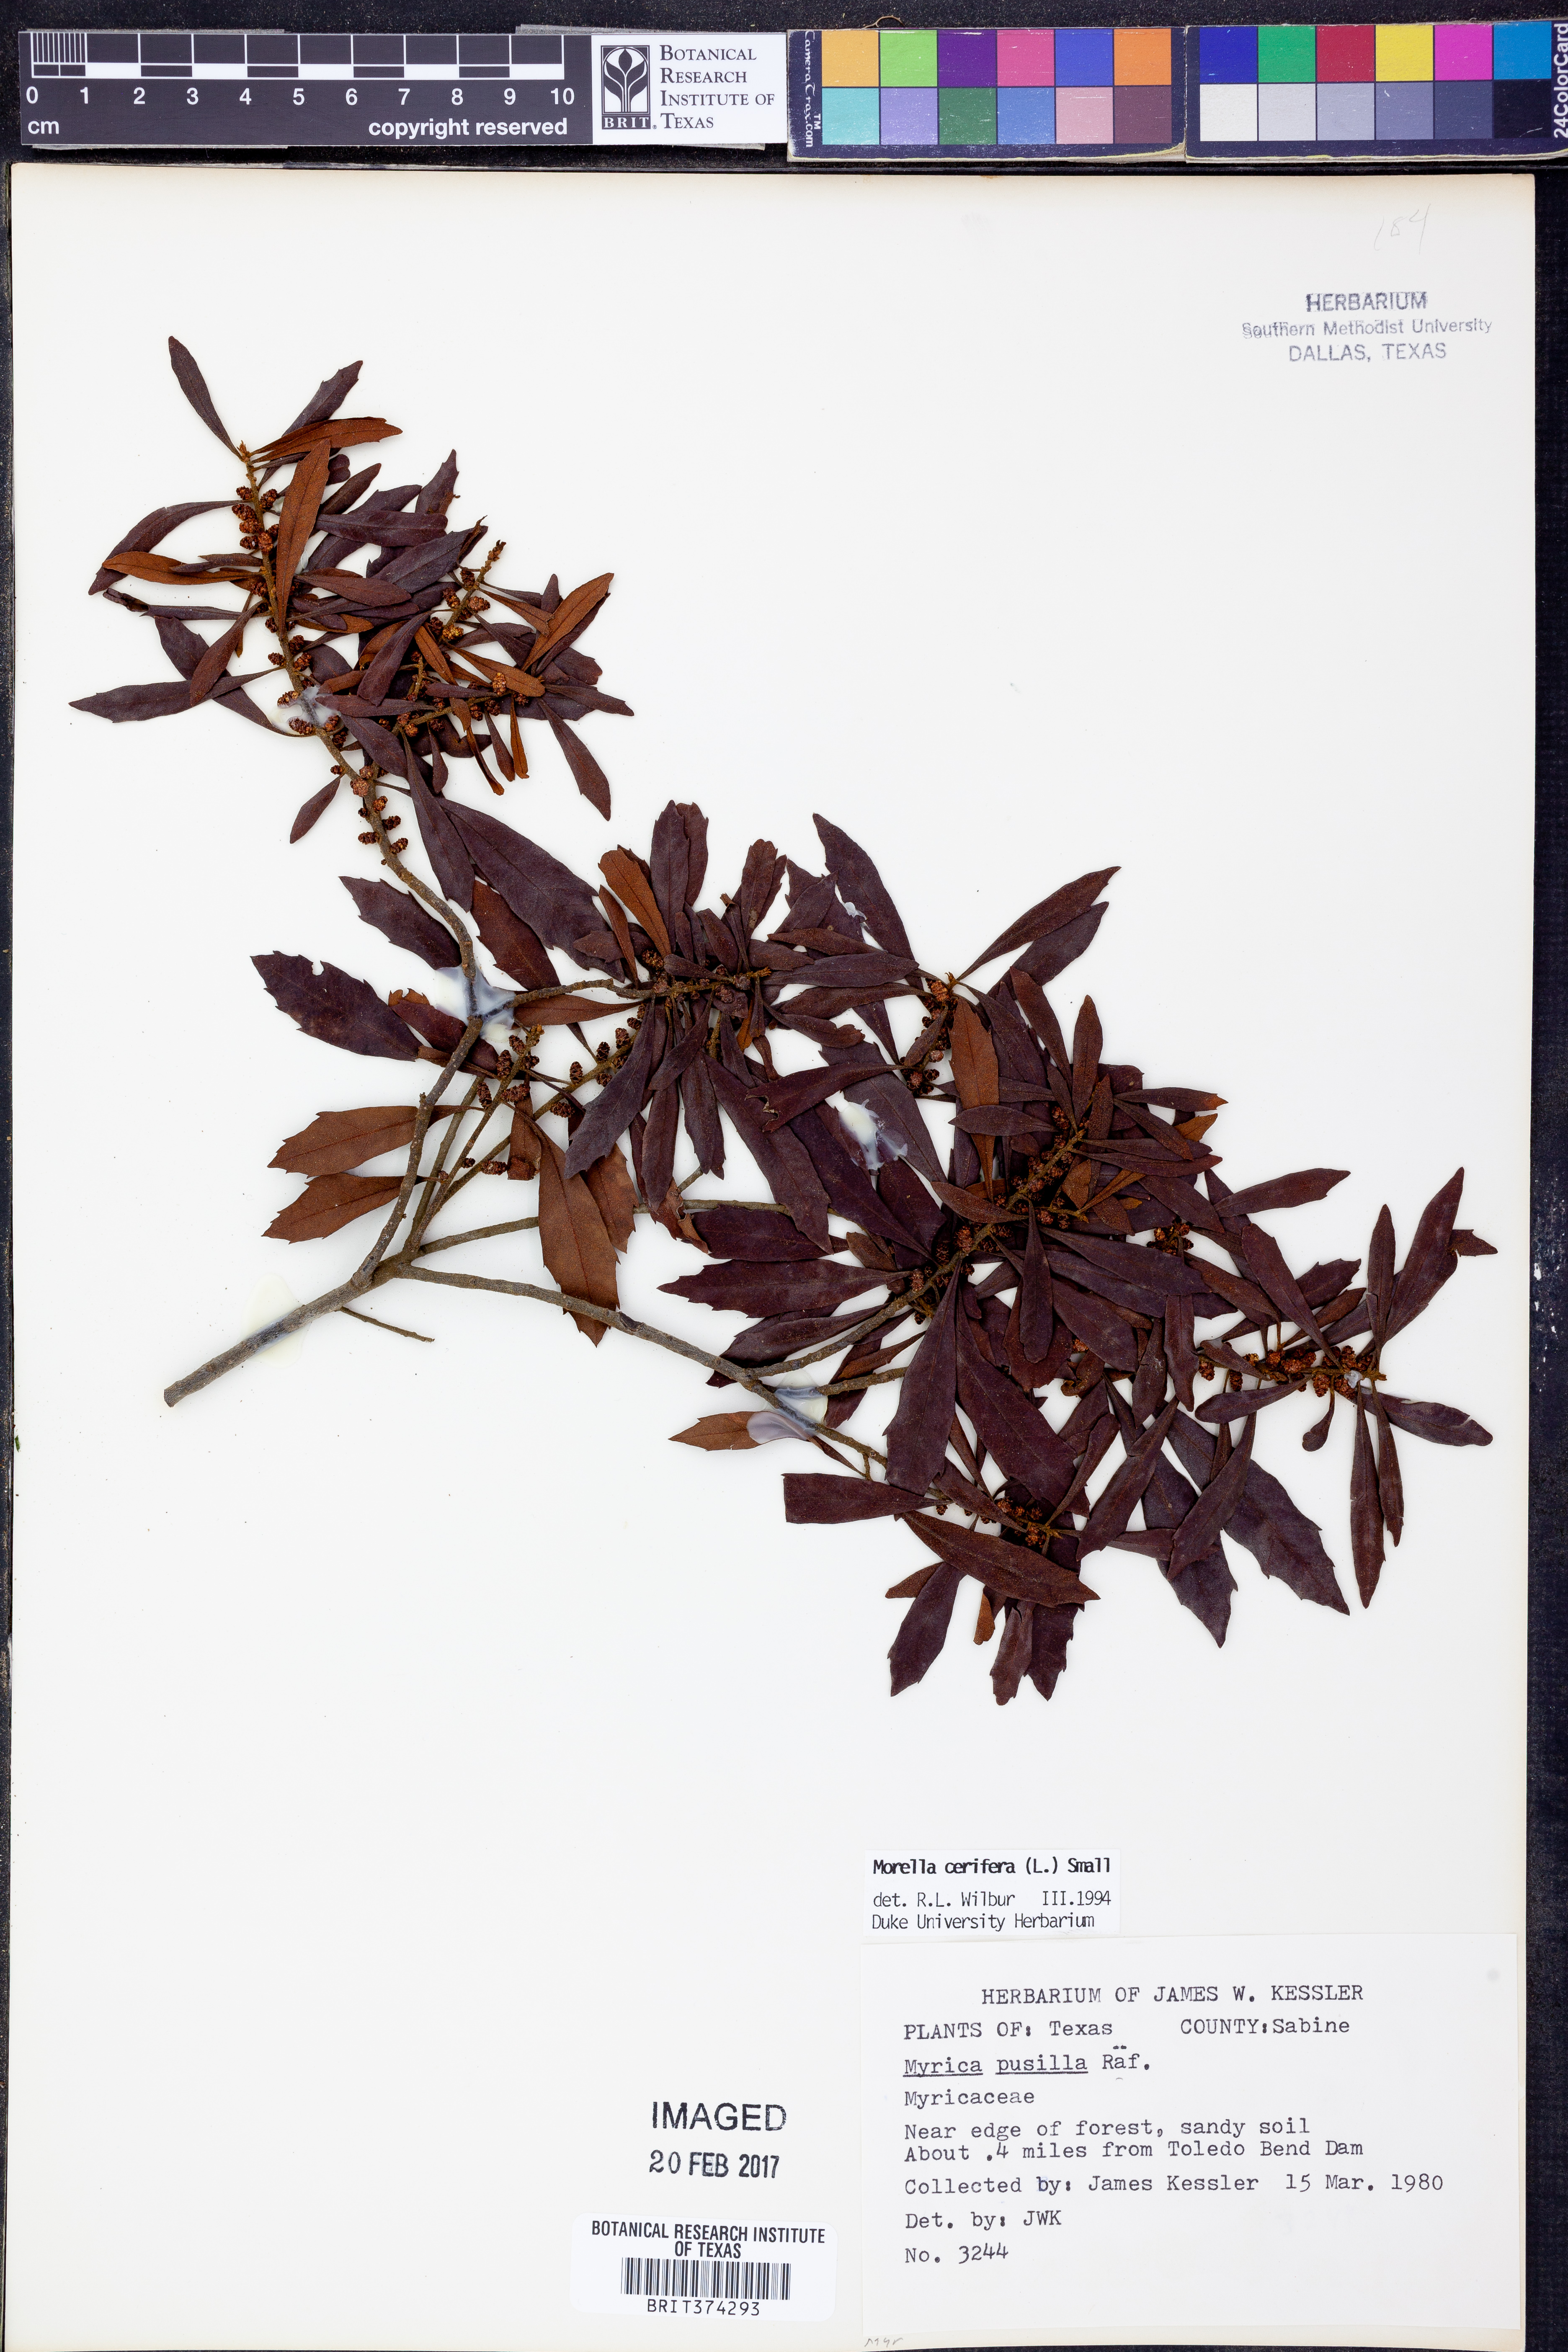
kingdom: Plantae
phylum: Tracheophyta
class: Magnoliopsida
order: Fagales
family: Myricaceae
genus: Morella
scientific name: Morella cerifera
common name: Wax myrtle
